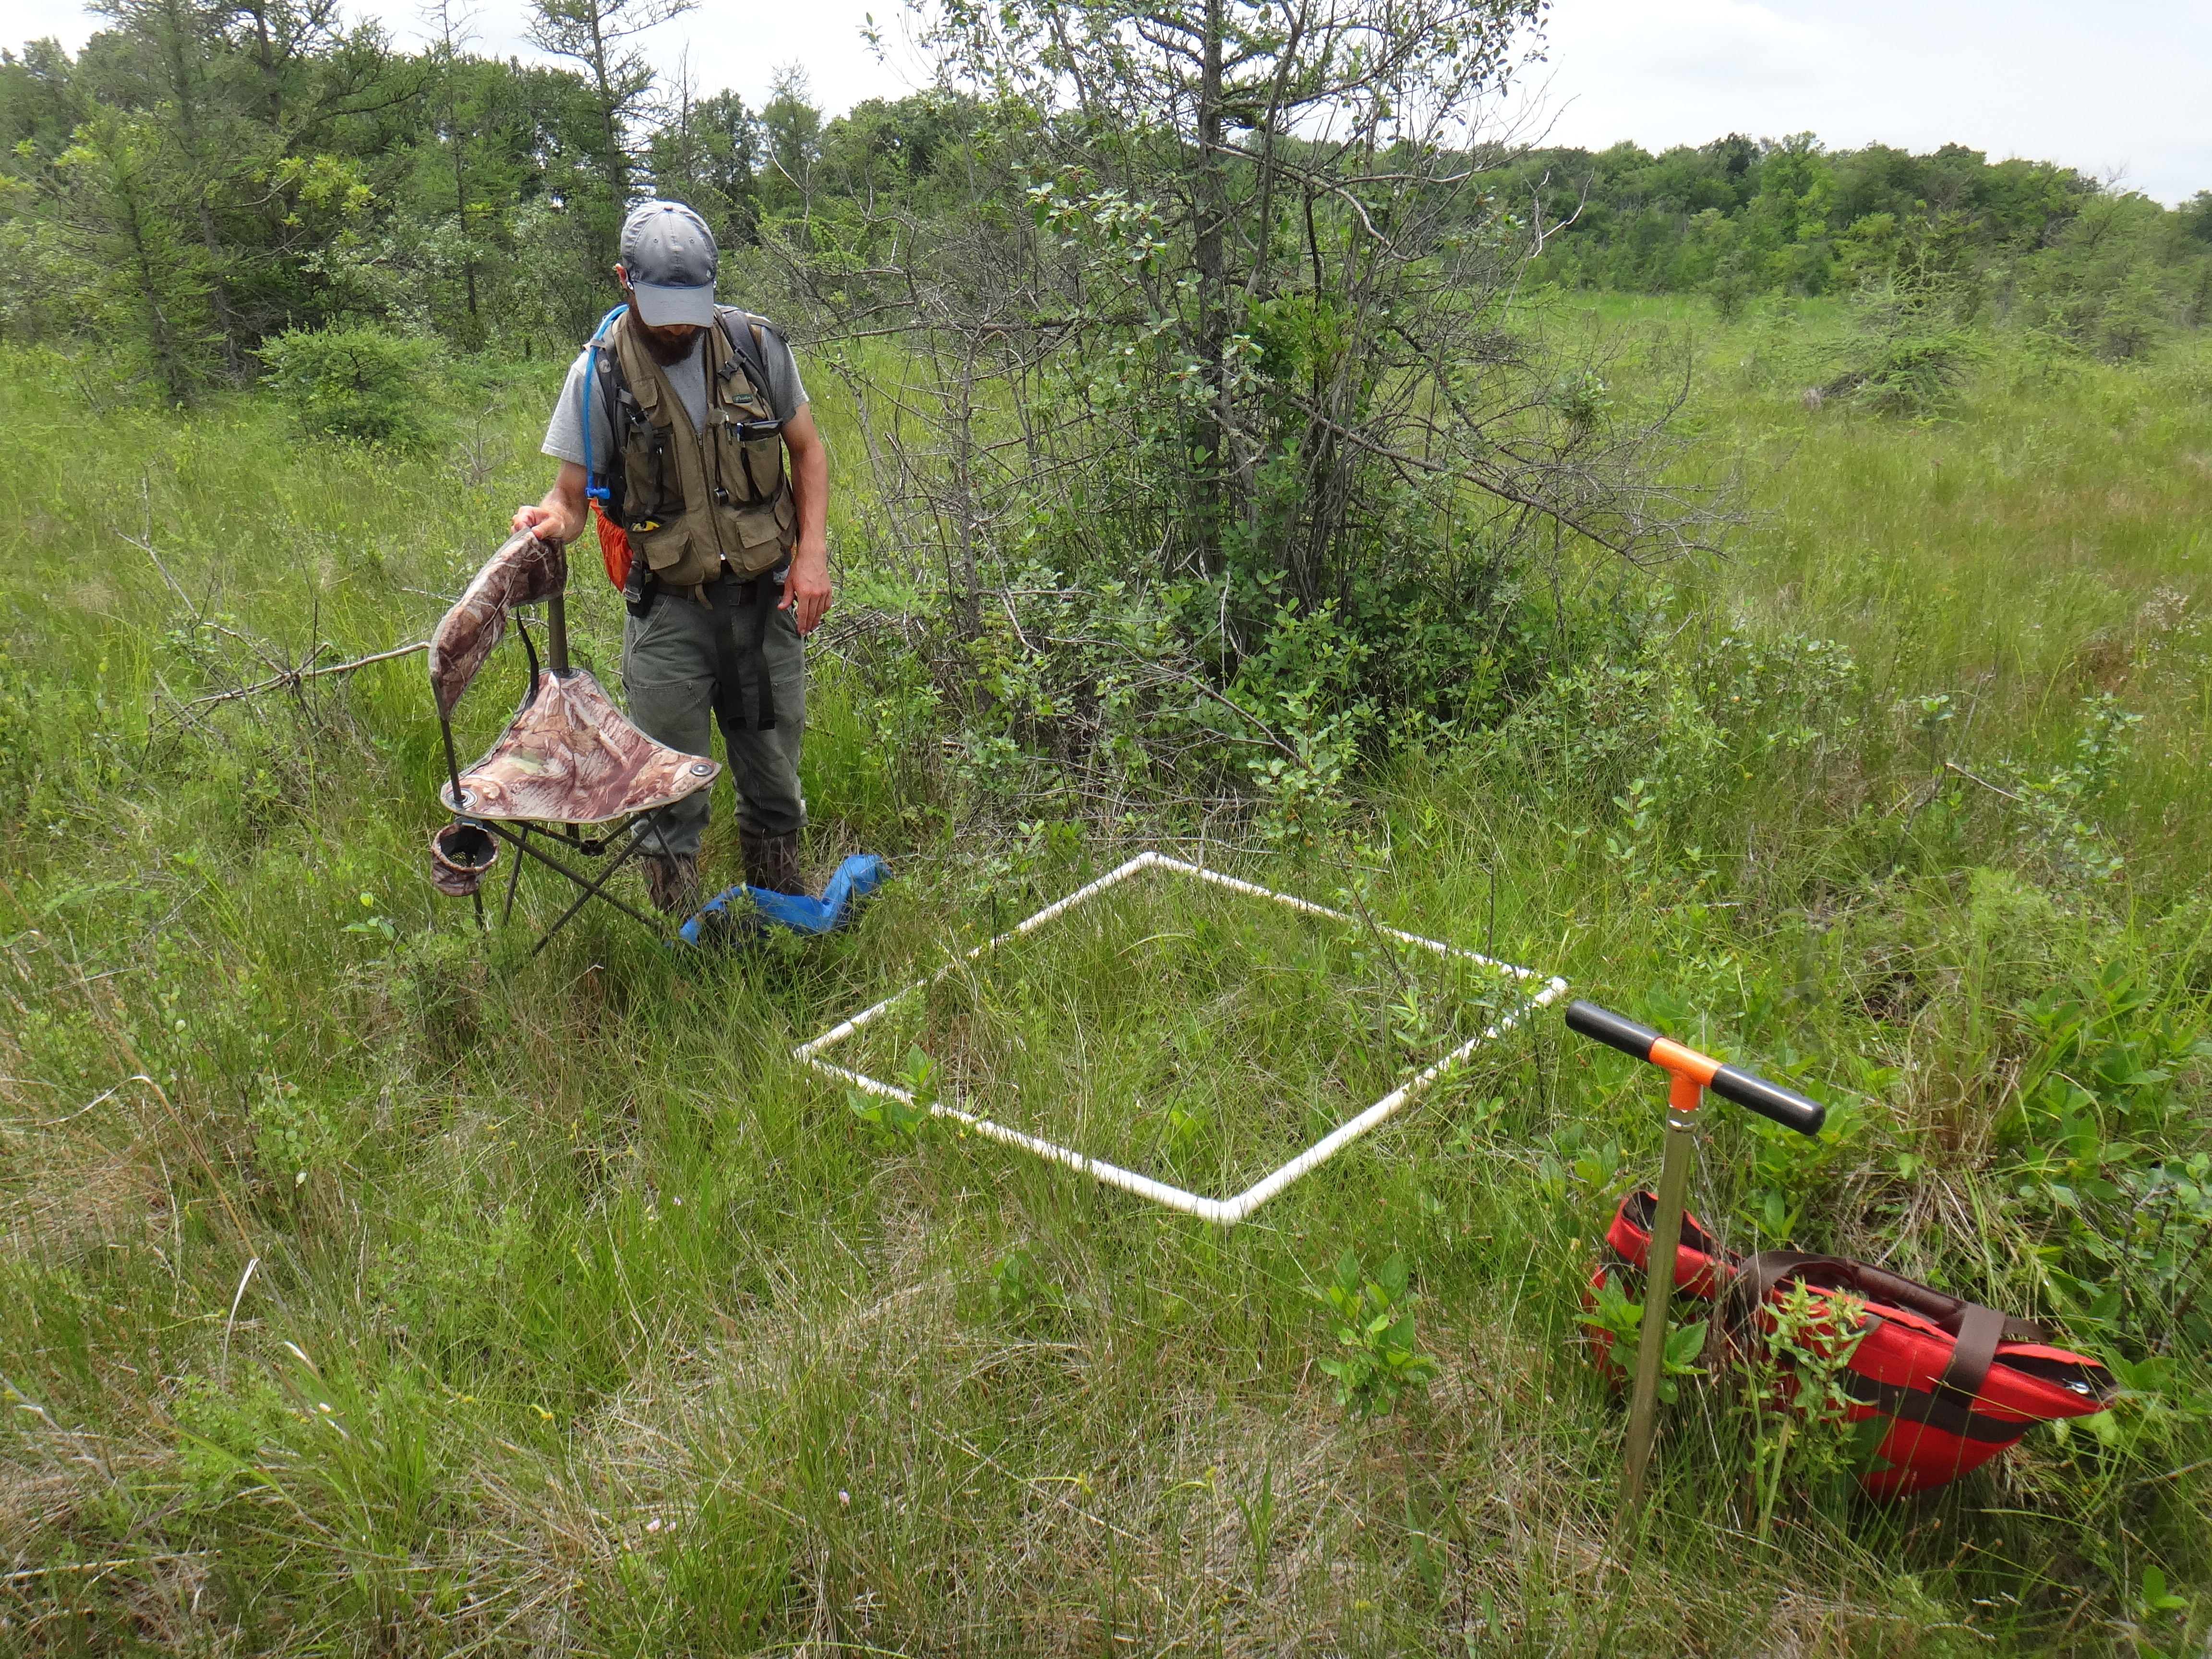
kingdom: Plantae
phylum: Tracheophyta
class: Liliopsida
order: Poales
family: Poaceae
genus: Muhlenbergia
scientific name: Muhlenbergia glomerata
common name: Bog muhly
